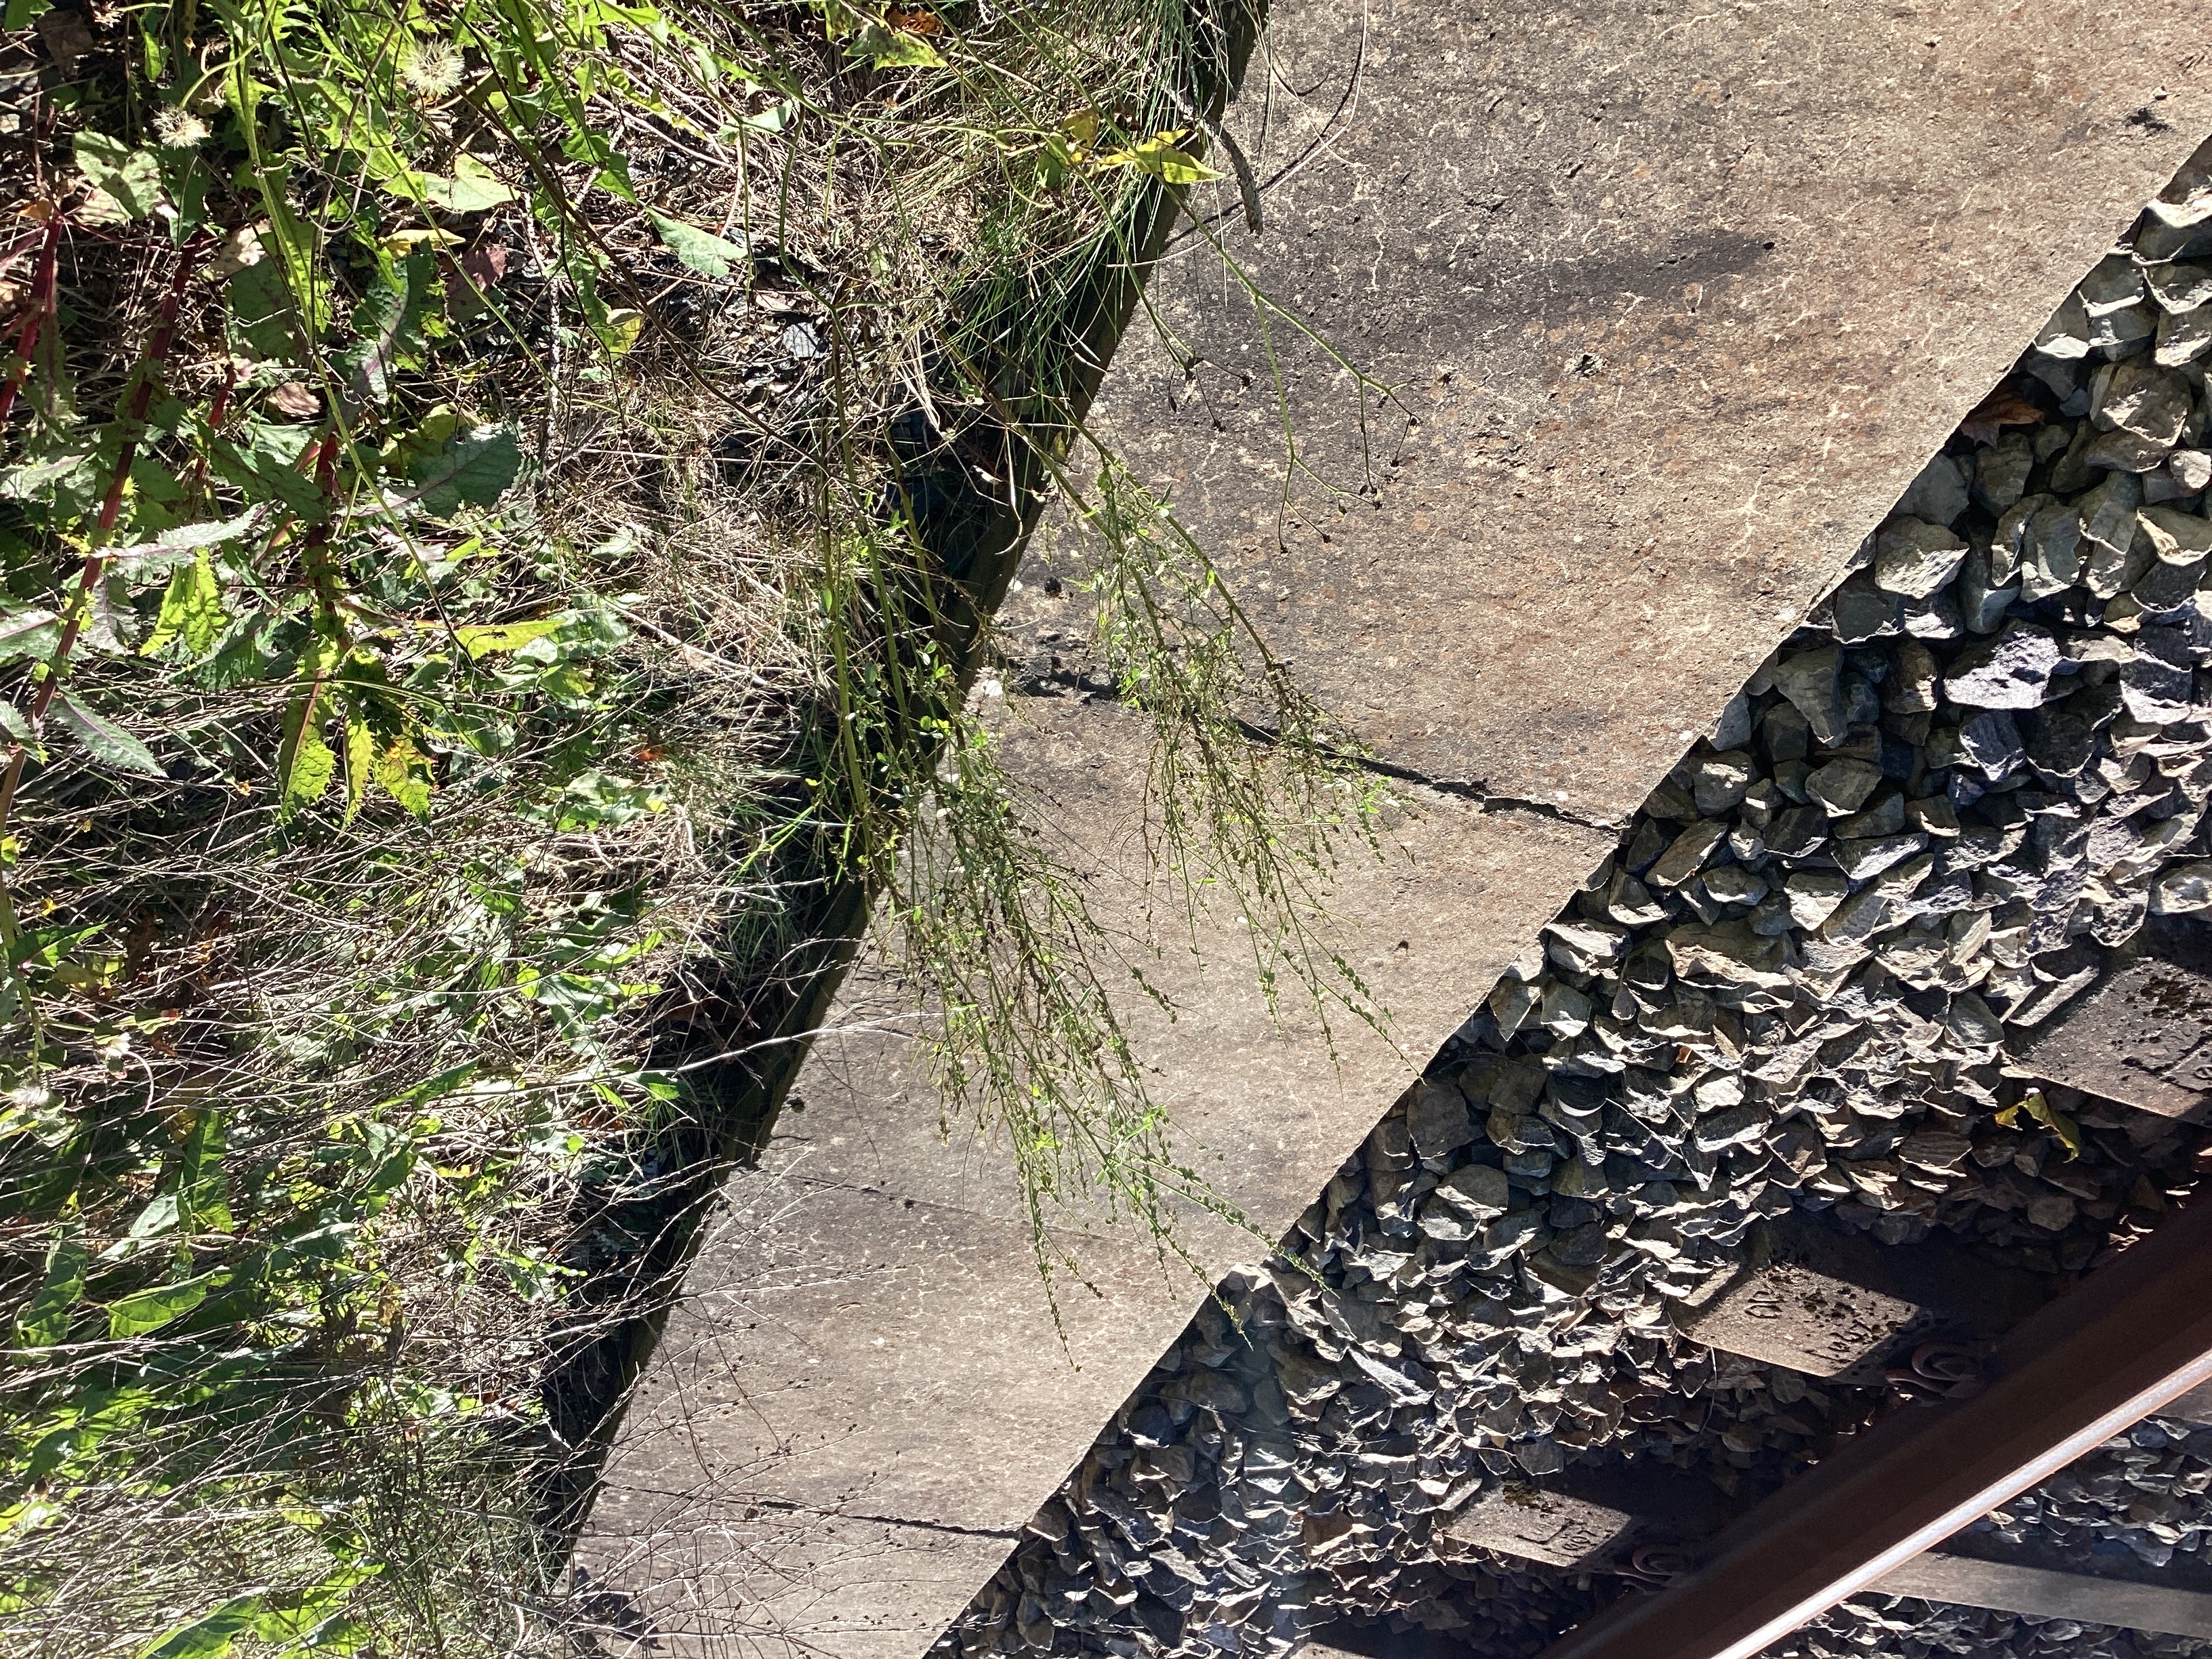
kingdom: Plantae
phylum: Tracheophyta
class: Magnoliopsida
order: Fabales
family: Fabaceae
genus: Melilotus
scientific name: Melilotus albus
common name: hvitsteinkløver
